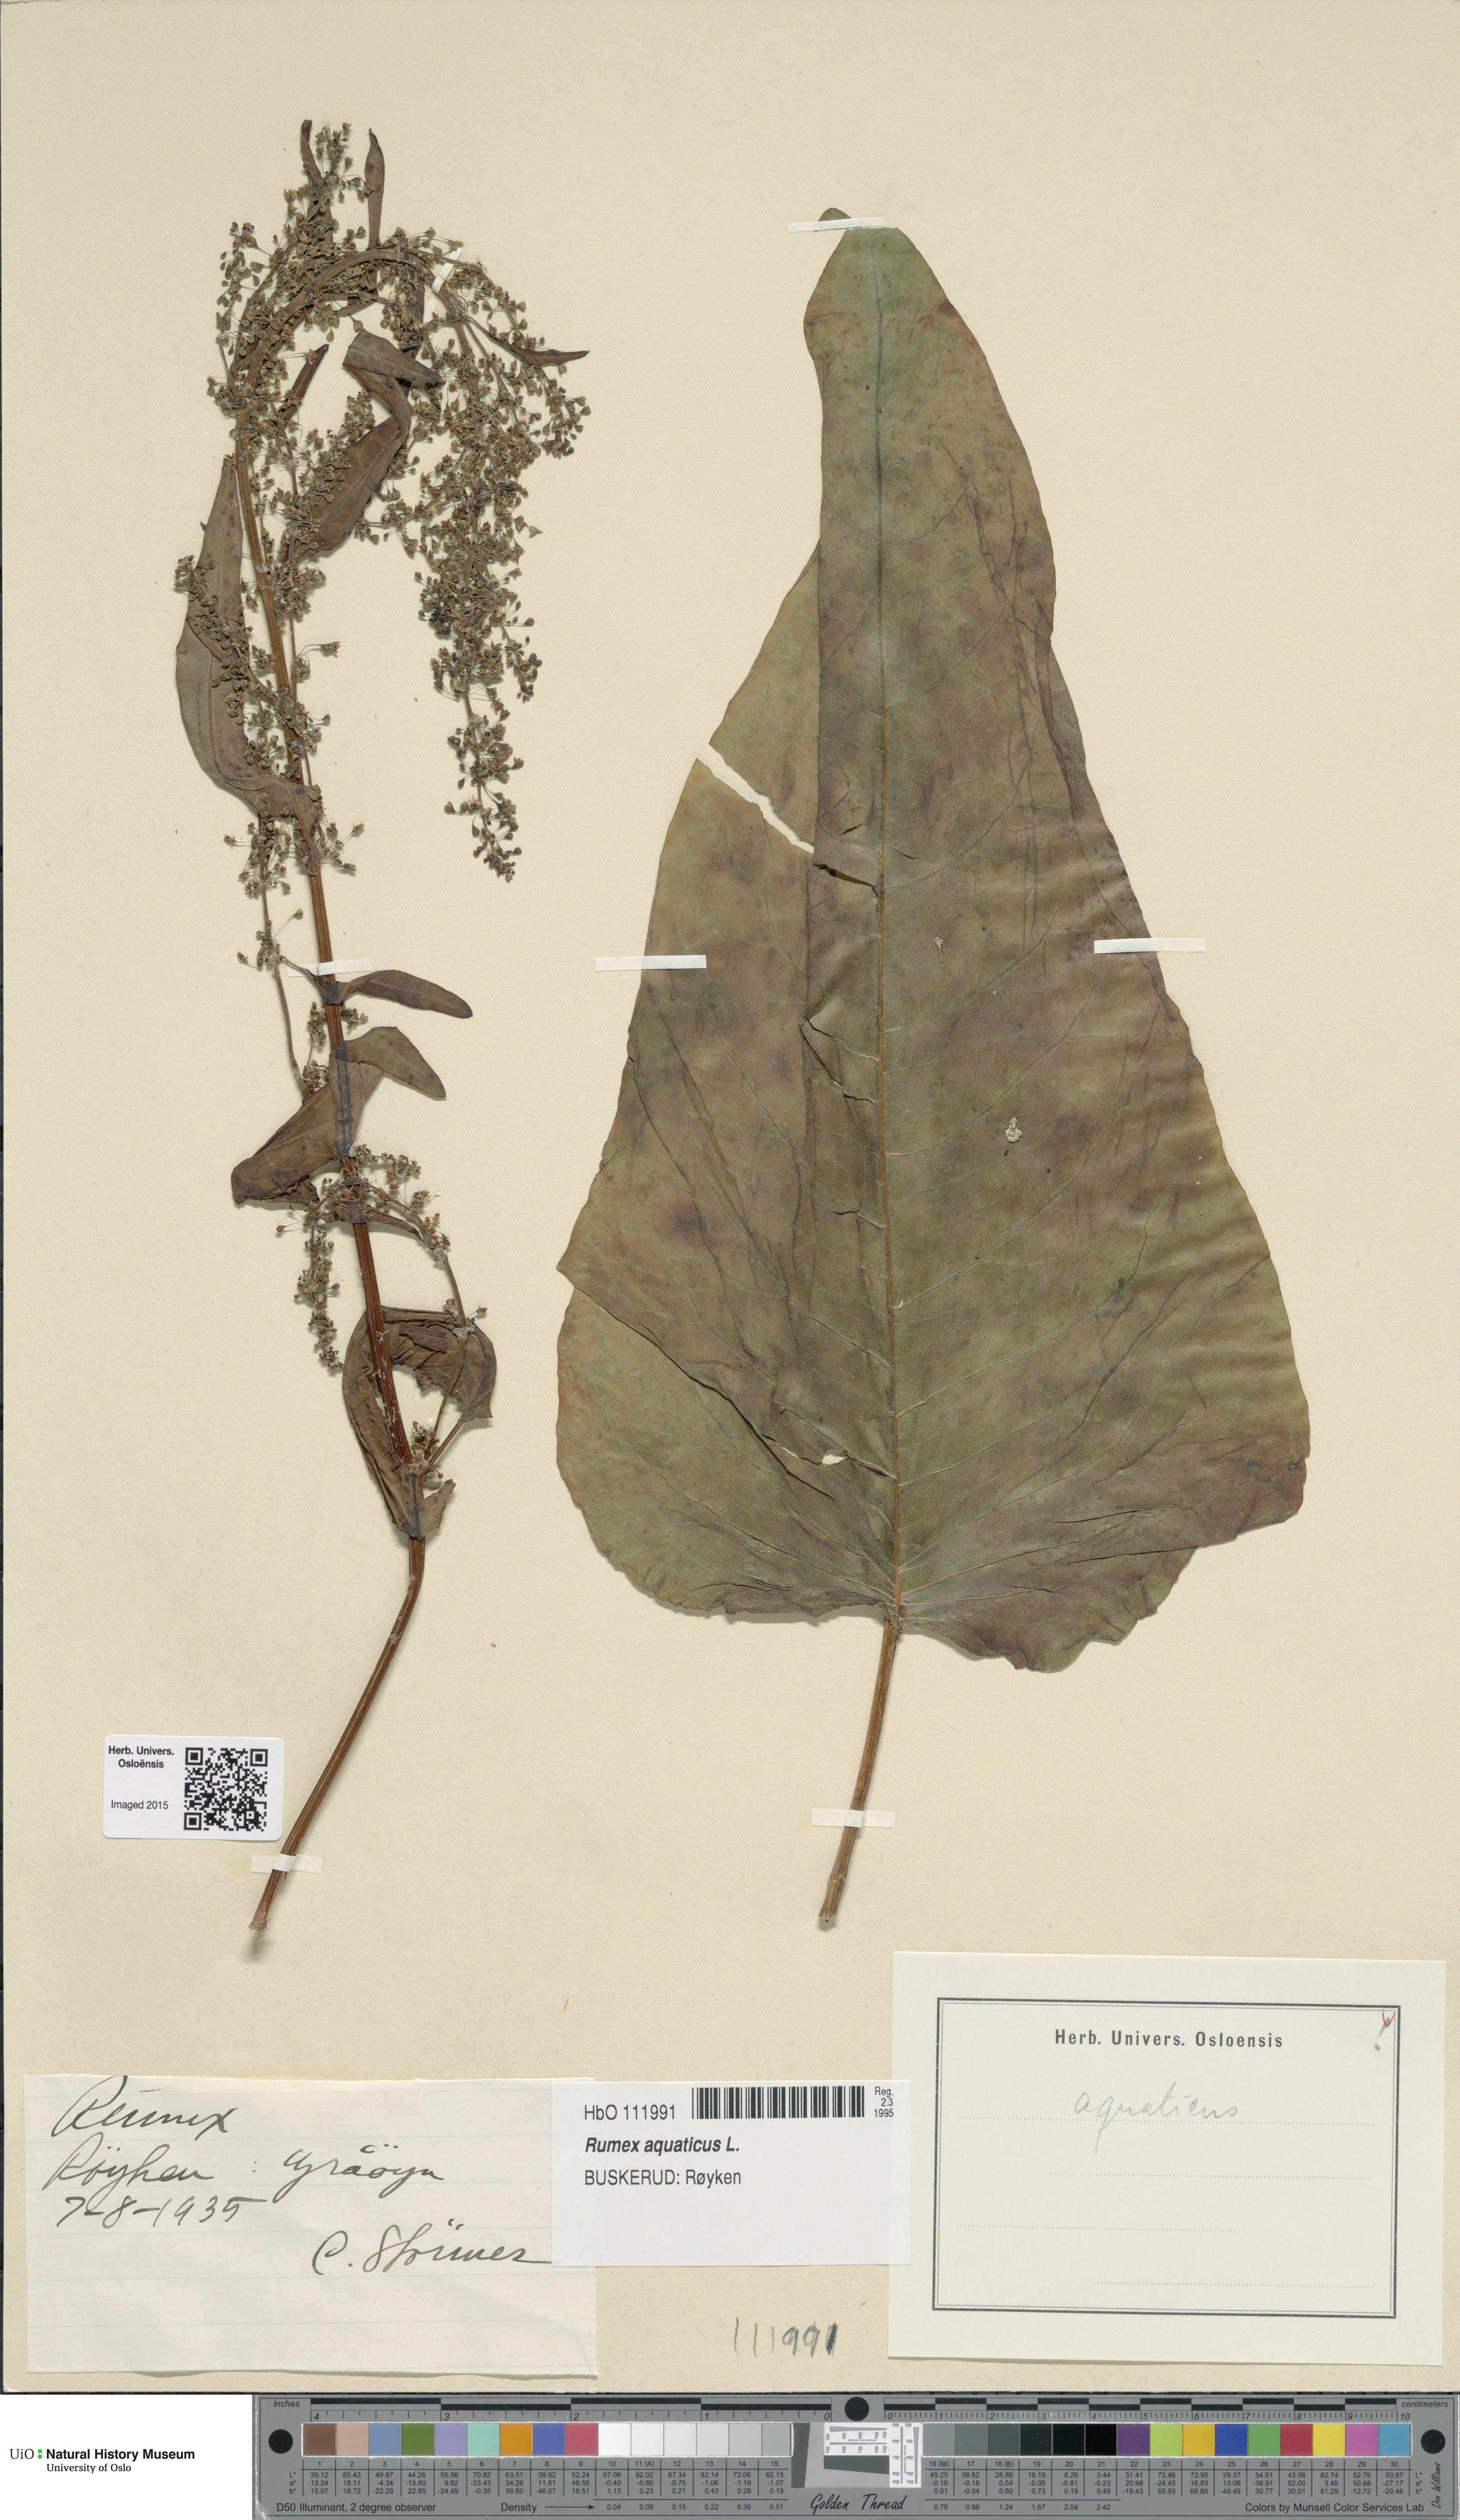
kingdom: Plantae
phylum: Tracheophyta
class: Magnoliopsida
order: Caryophyllales
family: Polygonaceae
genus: Rumex
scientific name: Rumex aquaticus
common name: Scottish dock
